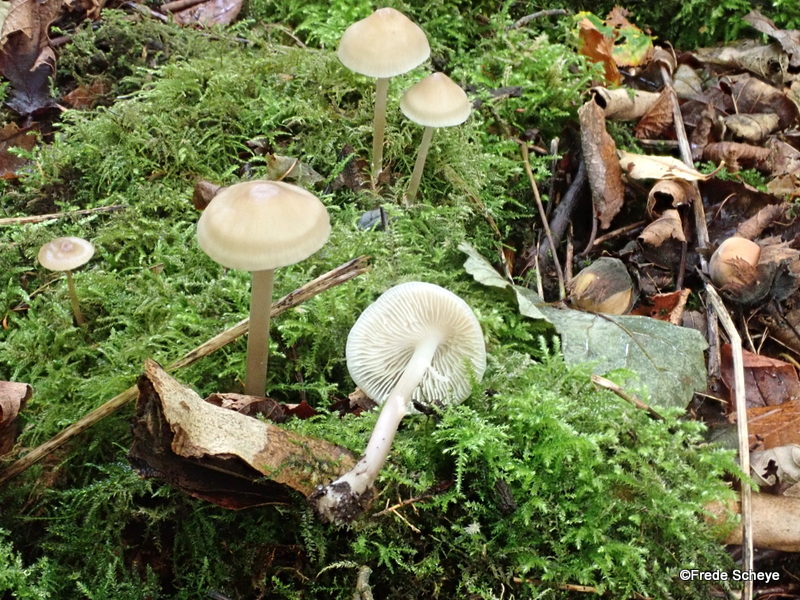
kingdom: Fungi
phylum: Basidiomycota
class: Agaricomycetes
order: Agaricales
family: Mycenaceae
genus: Mycena
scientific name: Mycena galericulata
